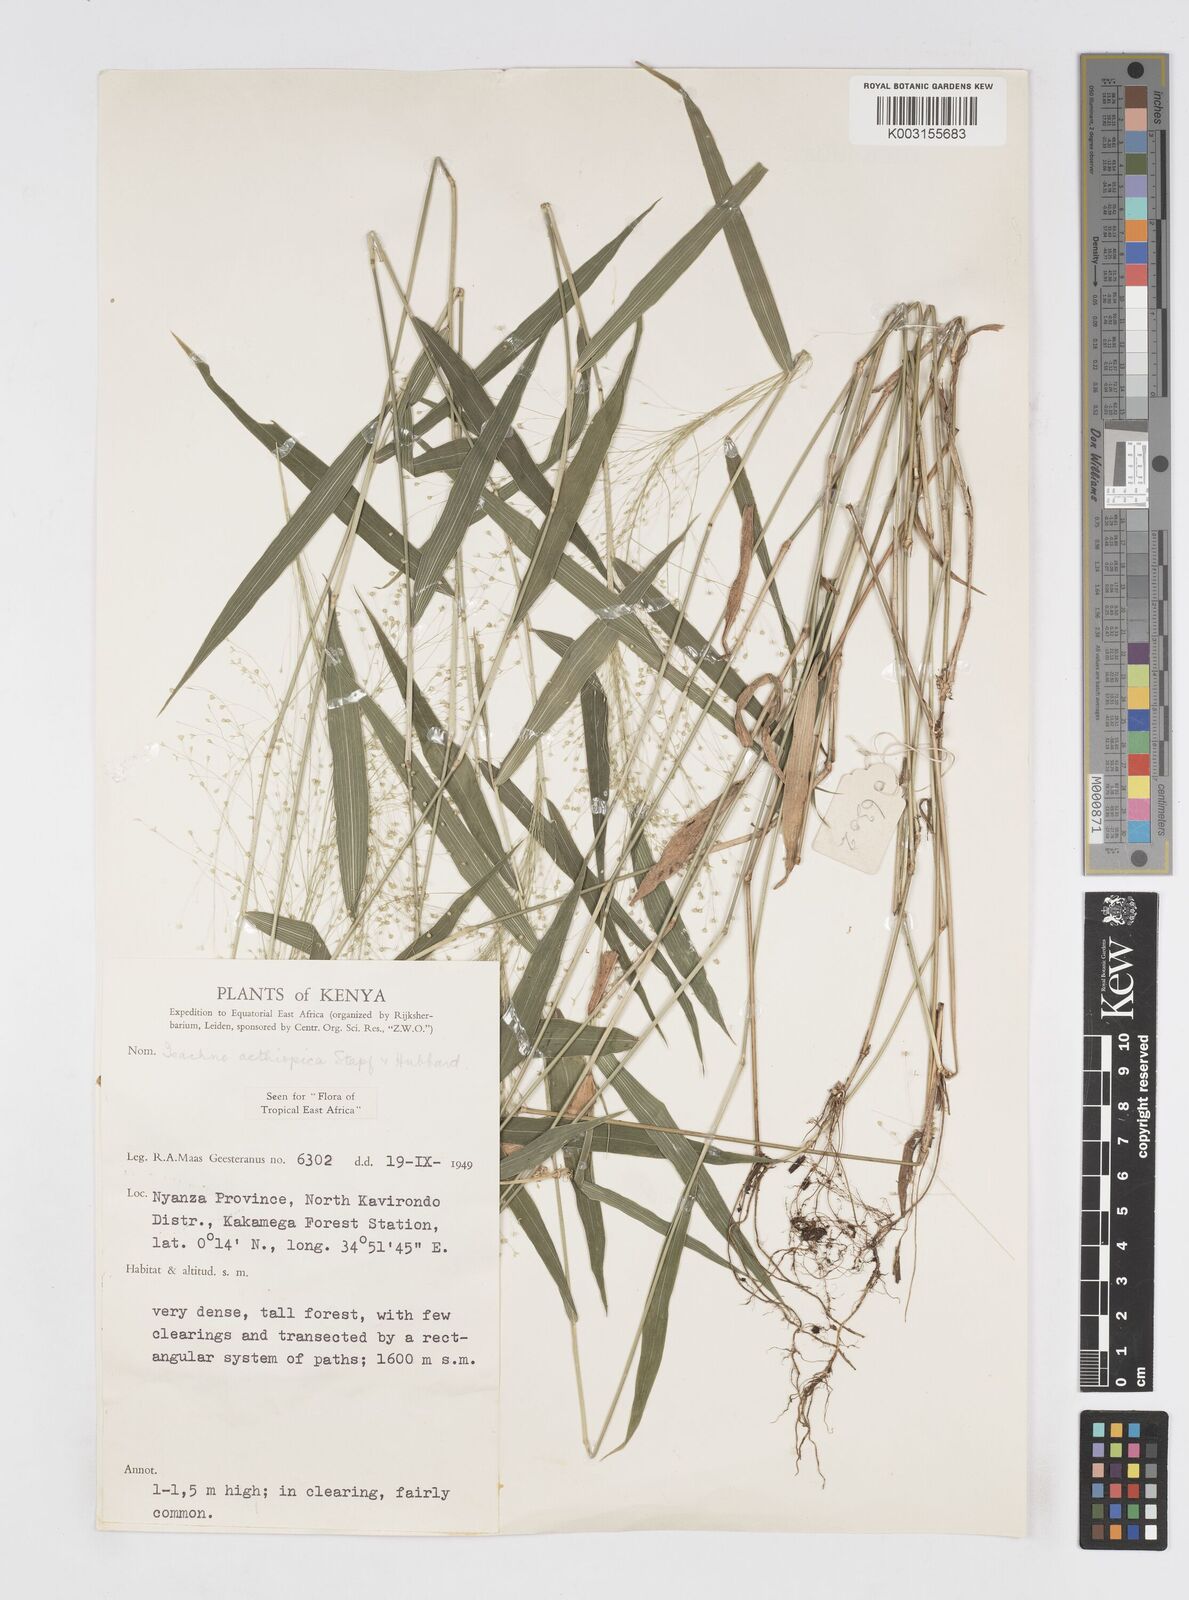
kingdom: Plantae
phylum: Tracheophyta
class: Liliopsida
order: Poales
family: Poaceae
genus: Isachne
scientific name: Isachne mauritiana
